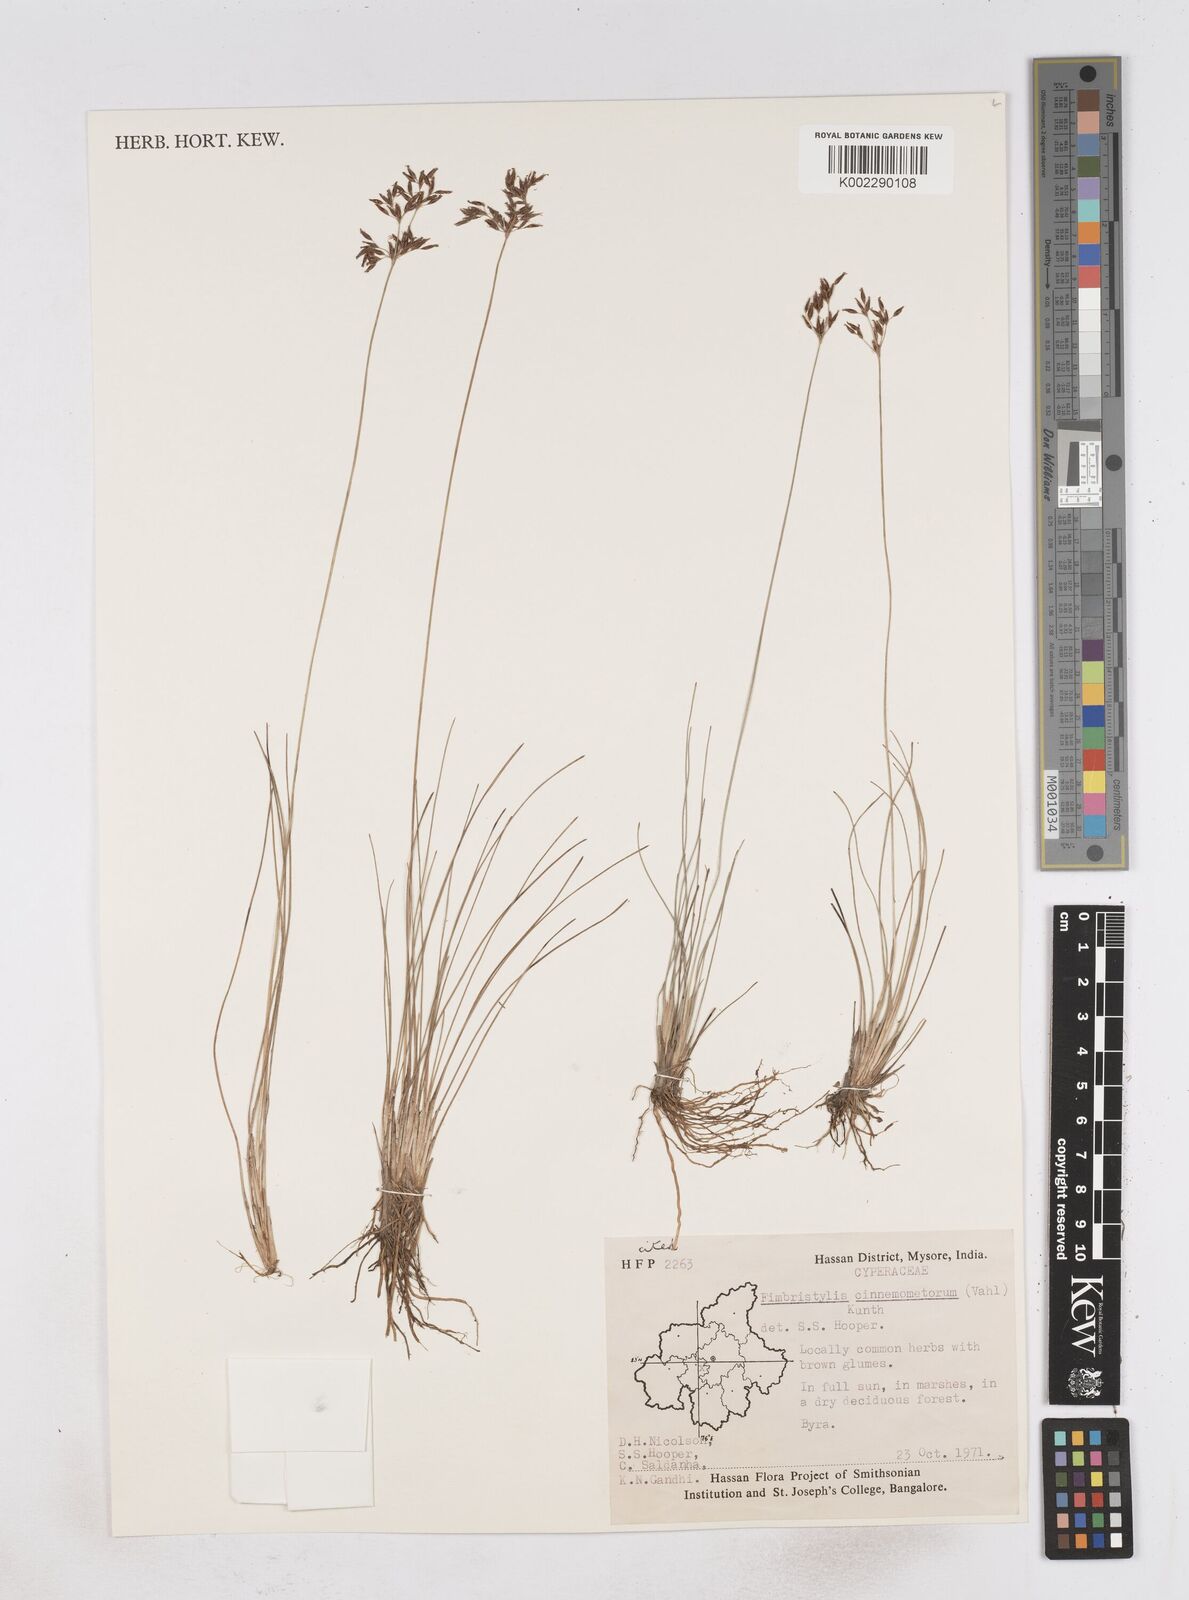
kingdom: Plantae
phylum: Tracheophyta
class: Liliopsida
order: Poales
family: Cyperaceae
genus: Fimbristylis
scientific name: Fimbristylis cinnamometorum
